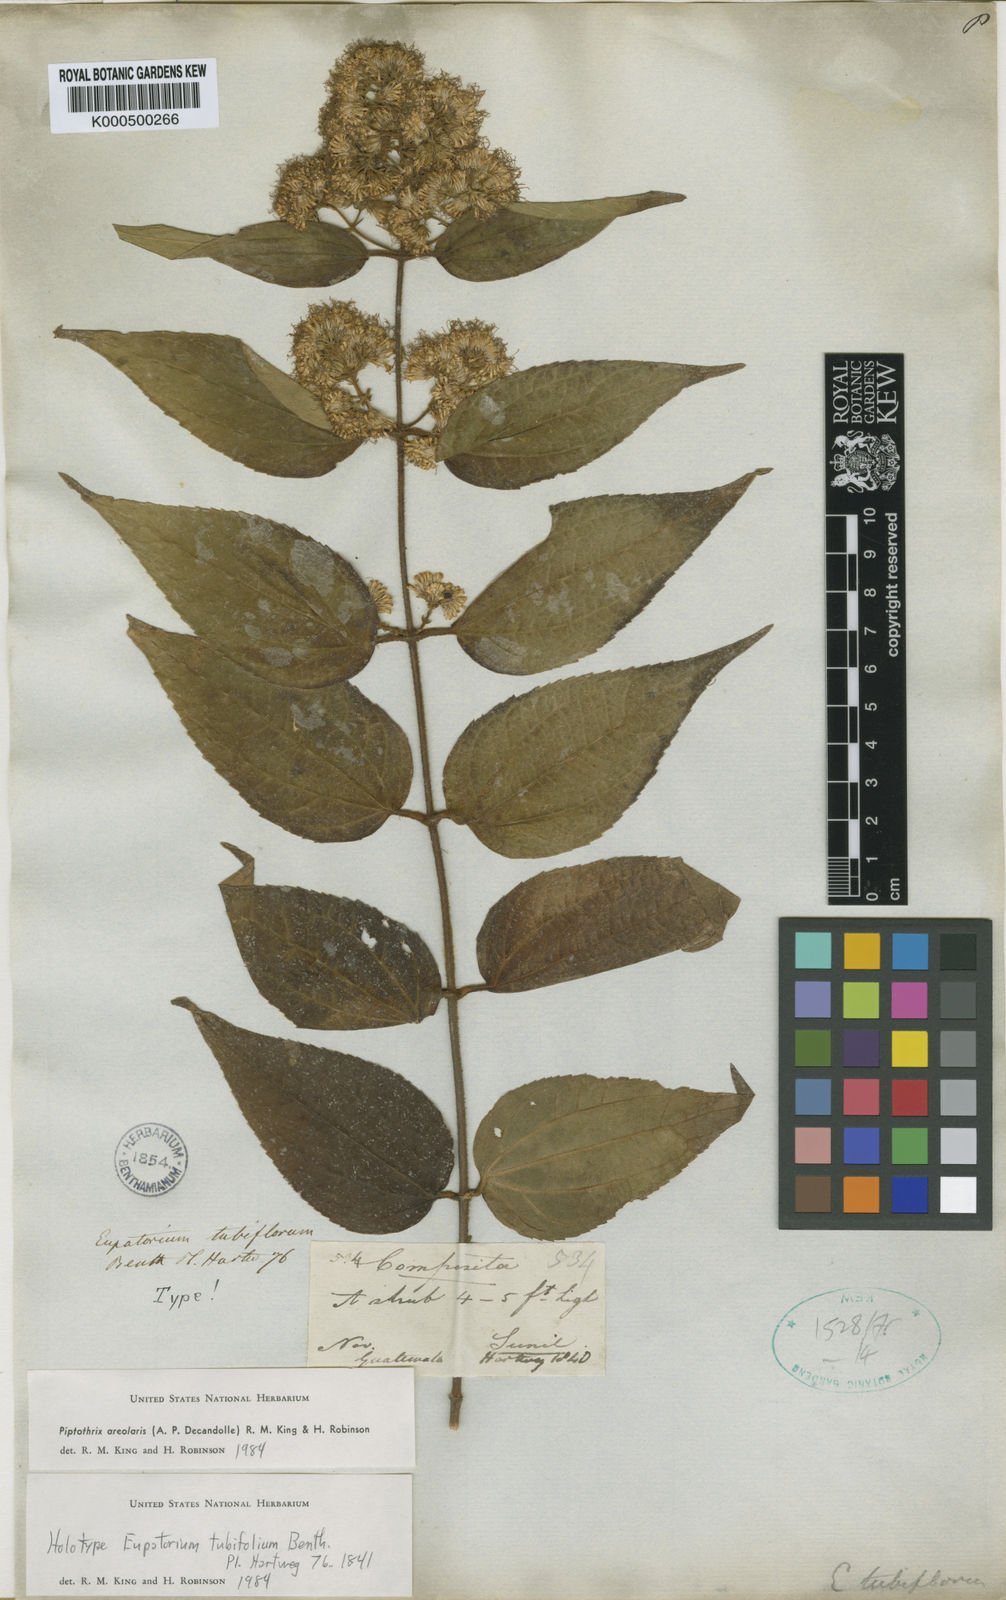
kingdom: Plantae
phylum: Tracheophyta
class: Magnoliopsida
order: Asterales
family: Asteraceae
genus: Ageratina
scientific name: Ageratina areolaris
